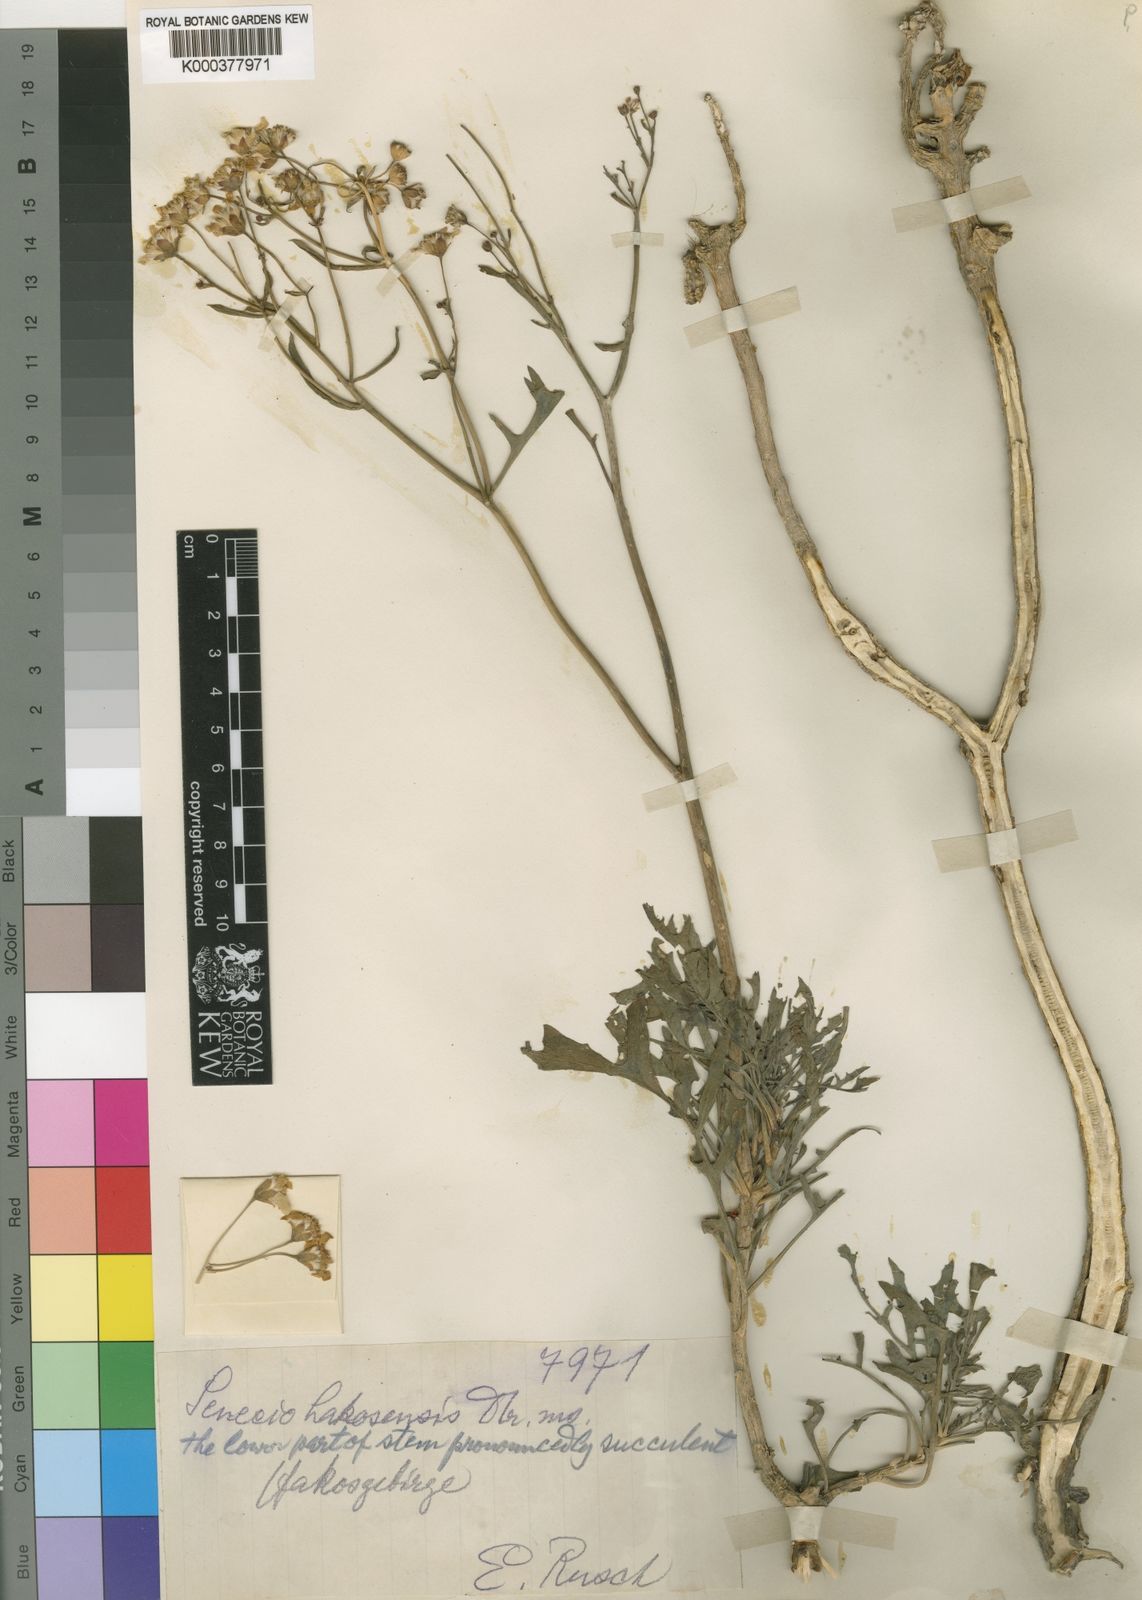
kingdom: Plantae
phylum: Tracheophyta
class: Magnoliopsida
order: Asterales
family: Asteraceae
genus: Senecio
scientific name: Senecio
